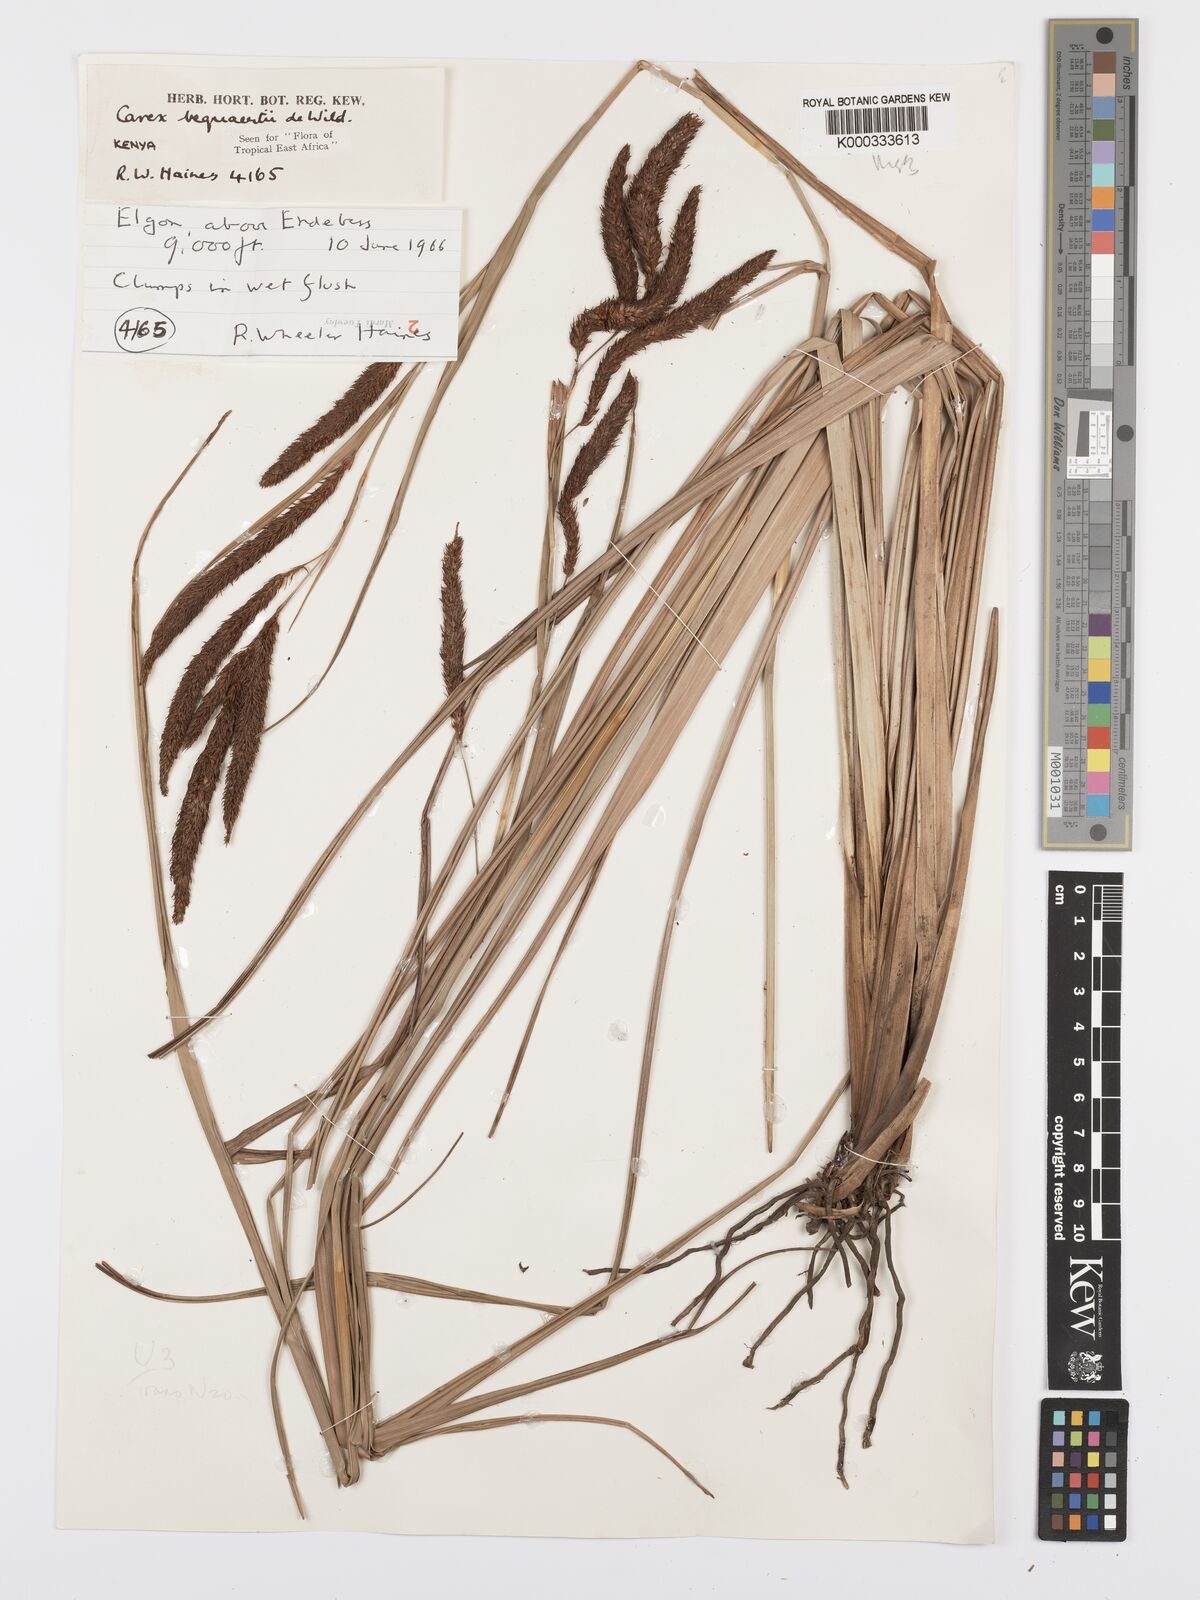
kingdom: Plantae
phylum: Tracheophyta
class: Liliopsida
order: Poales
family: Cyperaceae
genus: Carex
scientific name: Carex bequaertii
